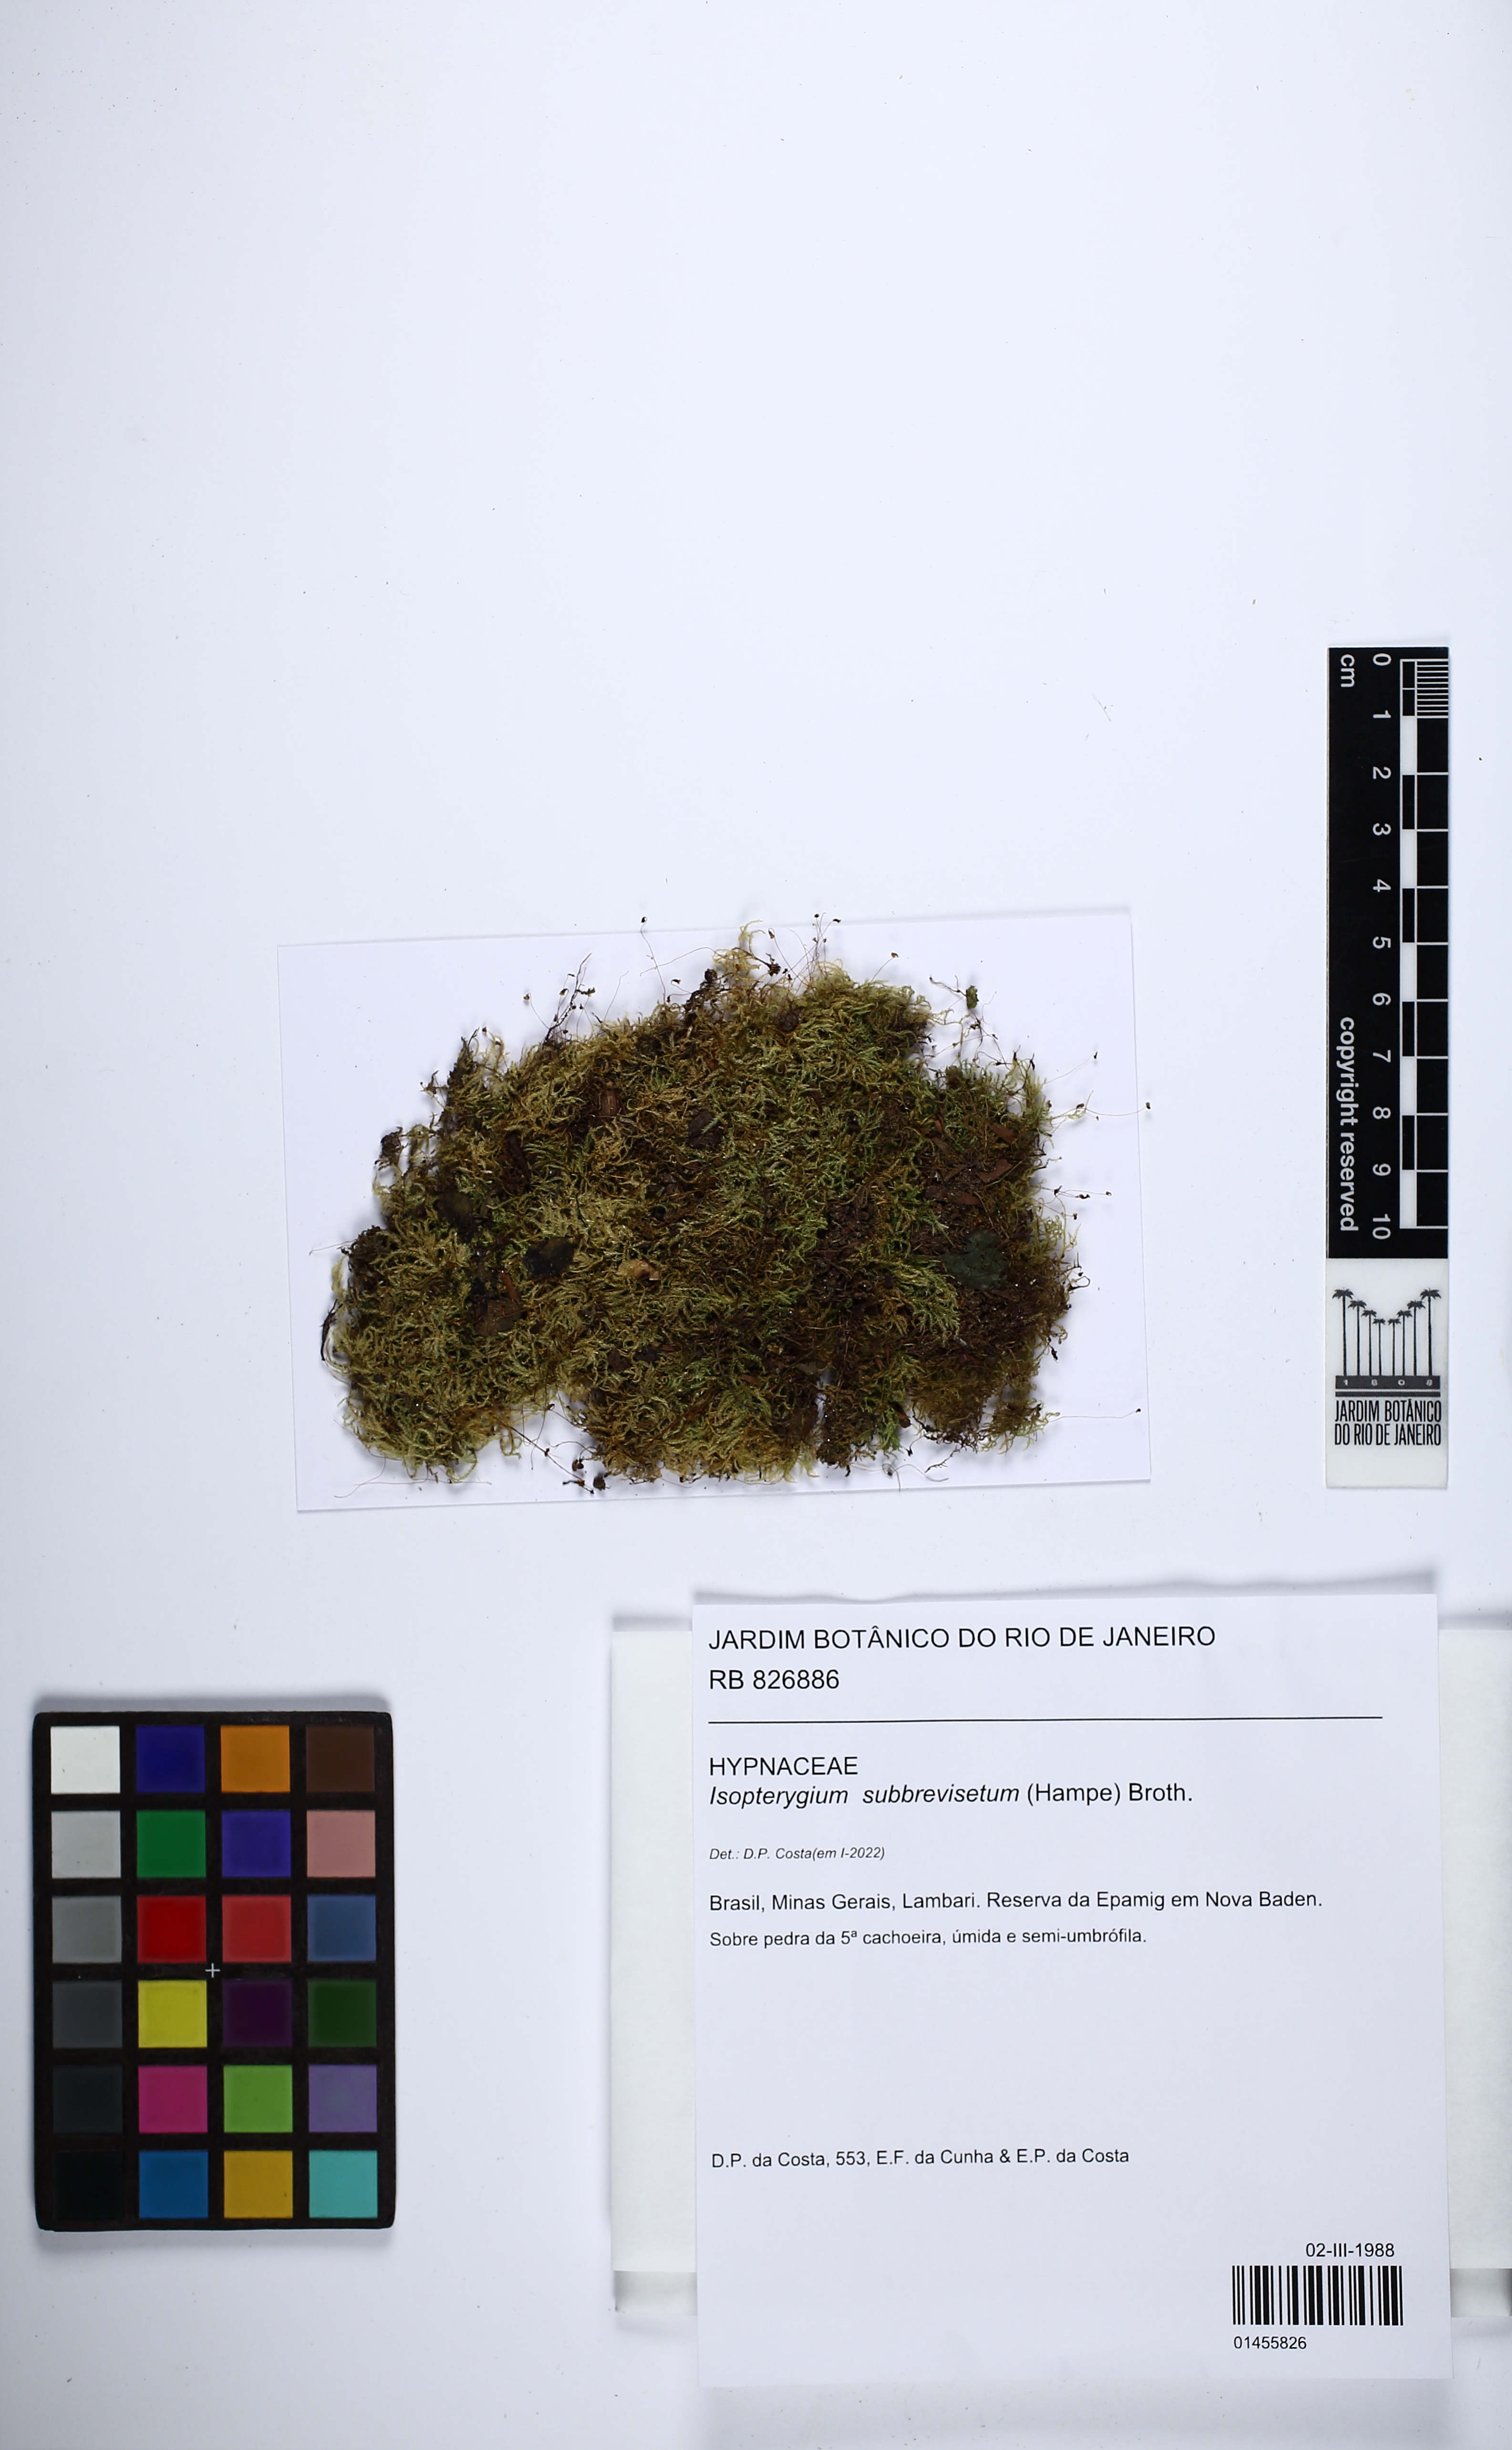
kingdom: Plantae
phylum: Bryophyta
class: Bryopsida
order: Hypnales
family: Pylaisiadelphaceae
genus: Isopterygium
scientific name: Isopterygium subbrevisetum
